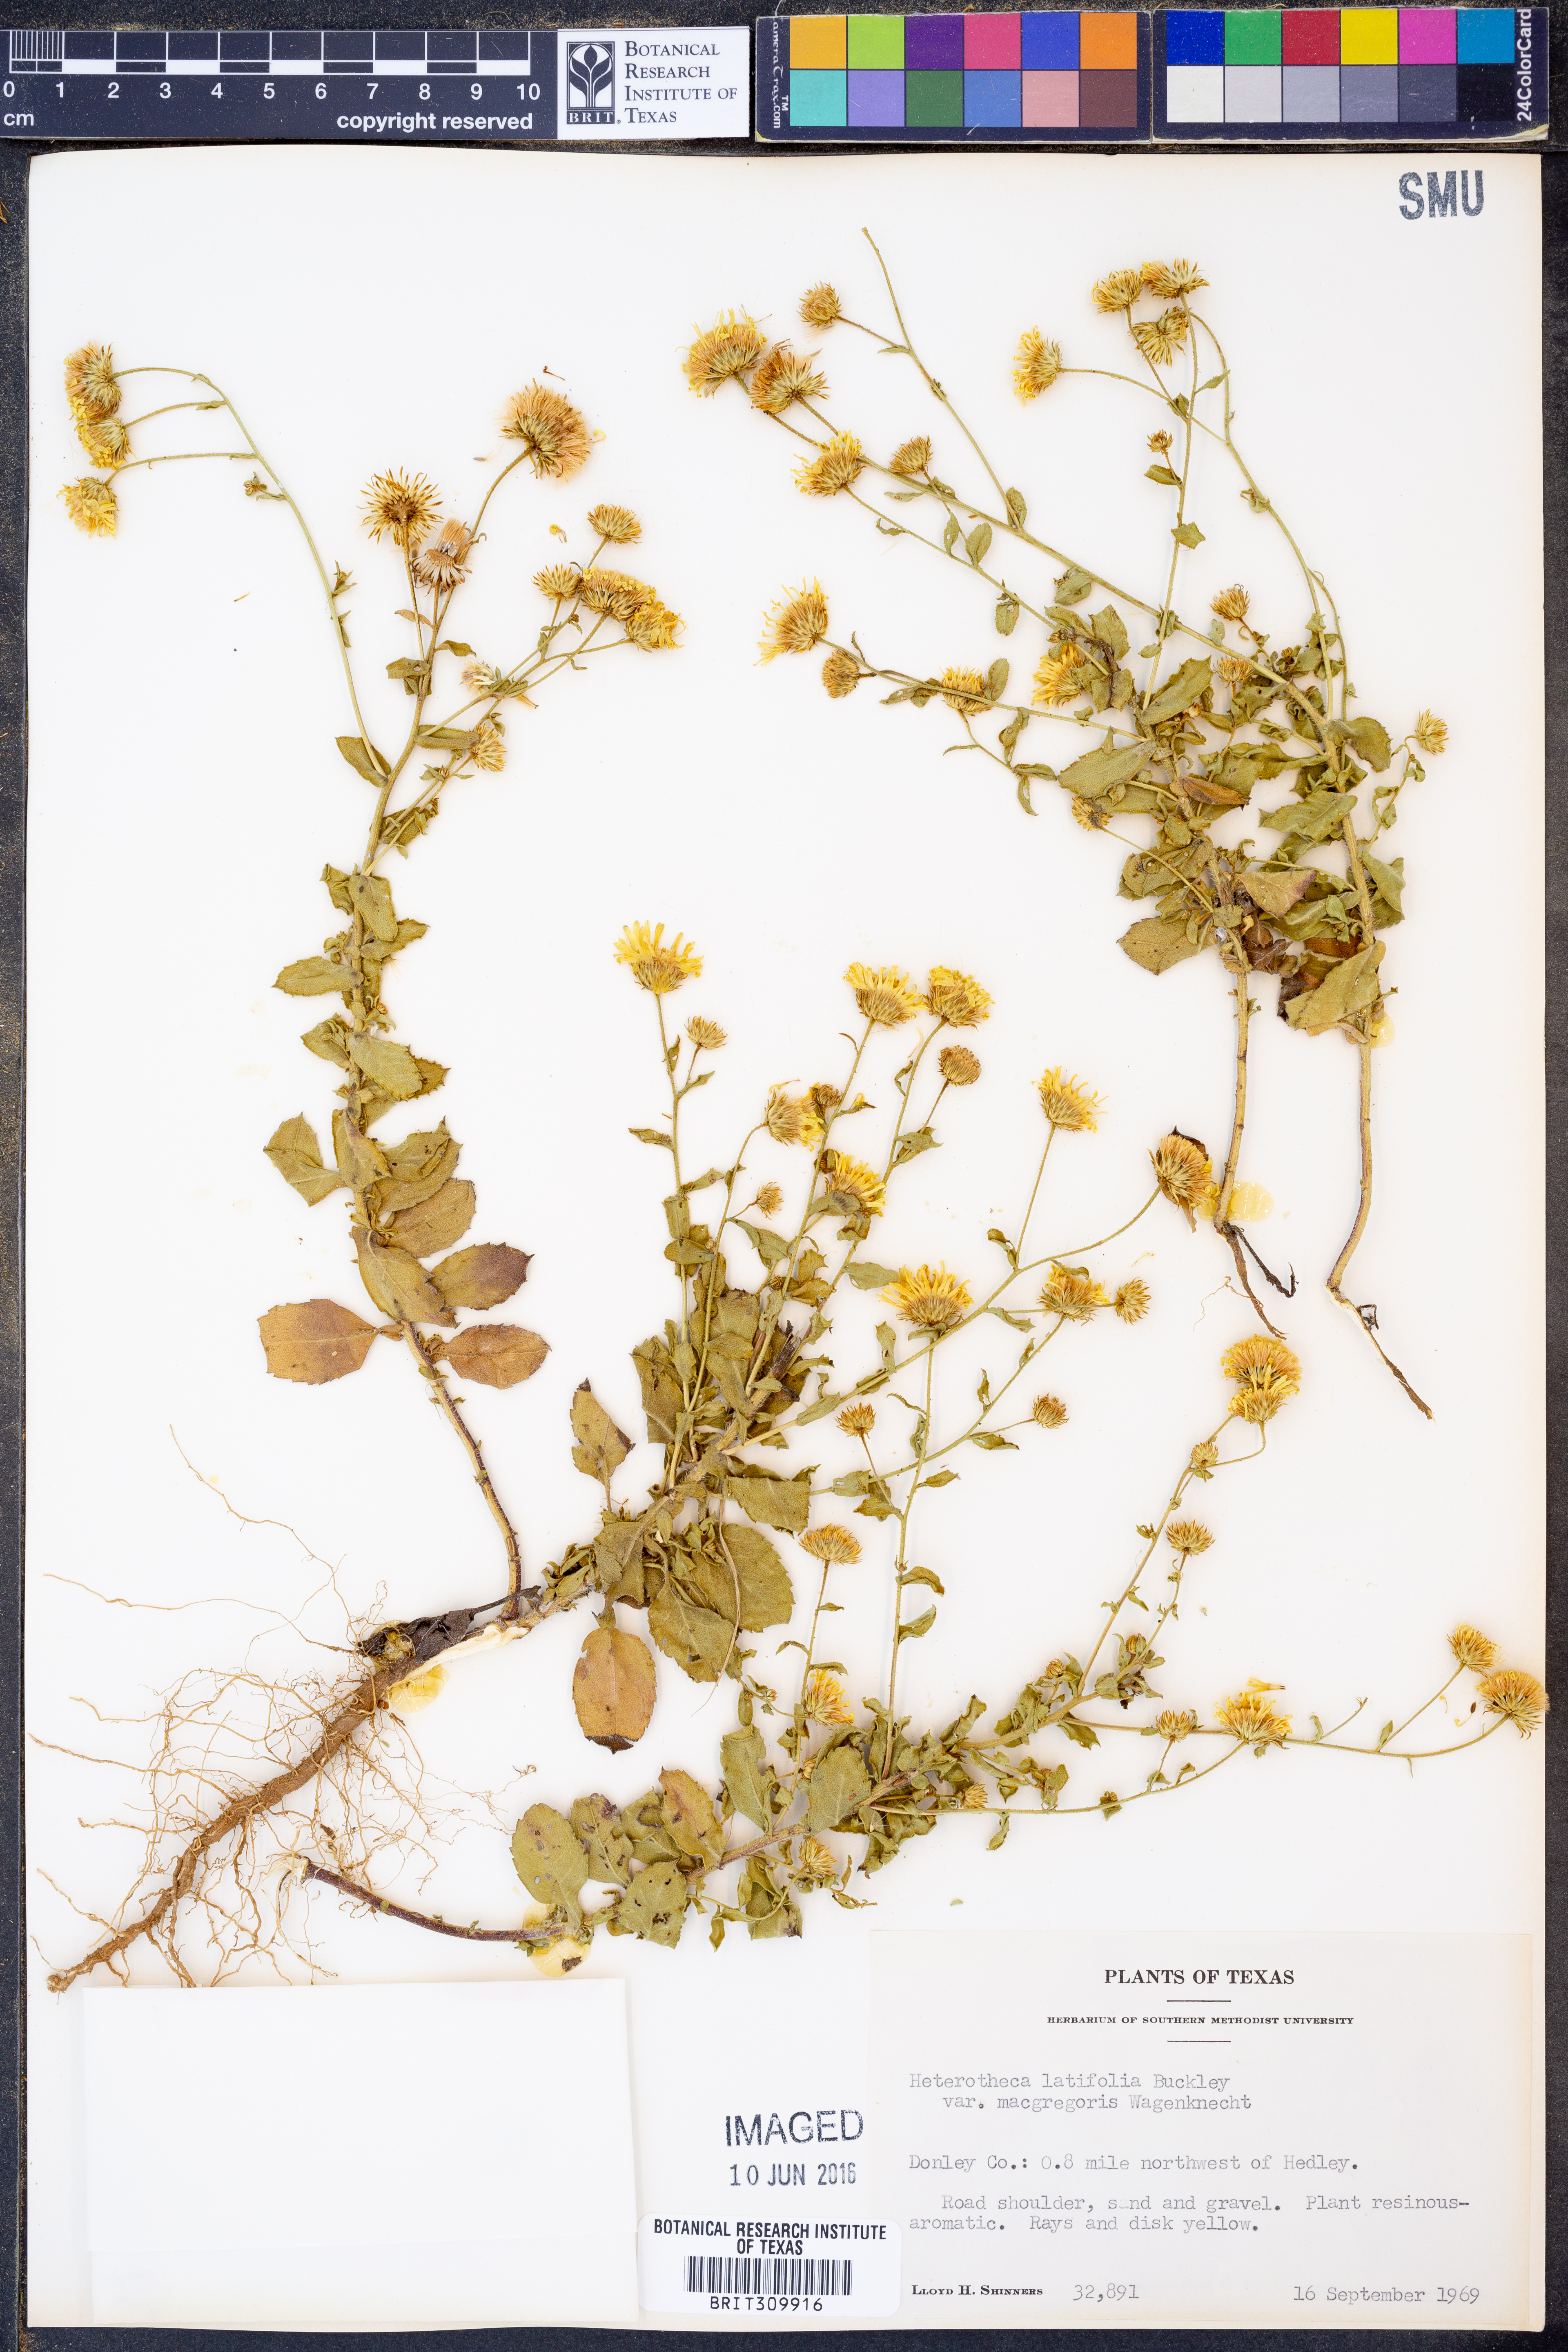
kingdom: Plantae
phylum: Tracheophyta
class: Magnoliopsida
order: Asterales
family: Asteraceae
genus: Heterotheca
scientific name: Heterotheca subaxillaris
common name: Camphorweed
